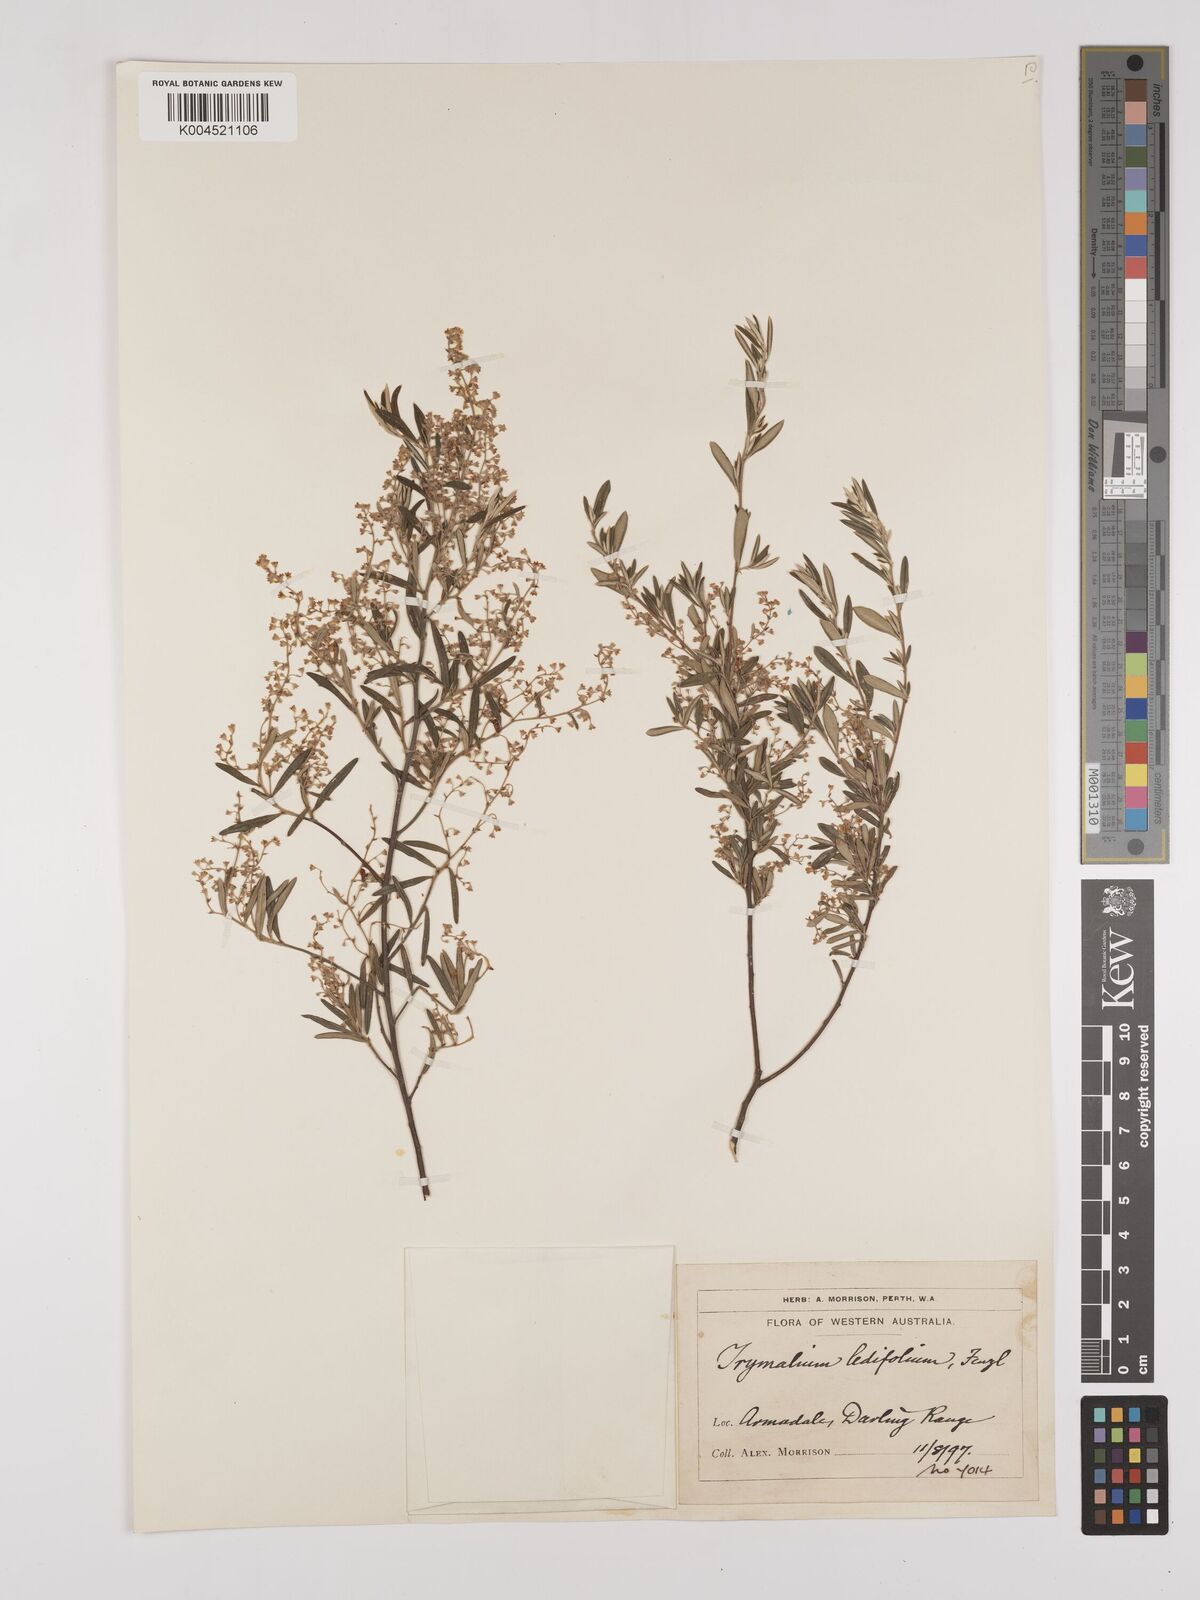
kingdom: Plantae
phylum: Tracheophyta
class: Magnoliopsida
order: Rosales
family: Rhamnaceae
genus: Trymalium
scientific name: Trymalium ledifolium
